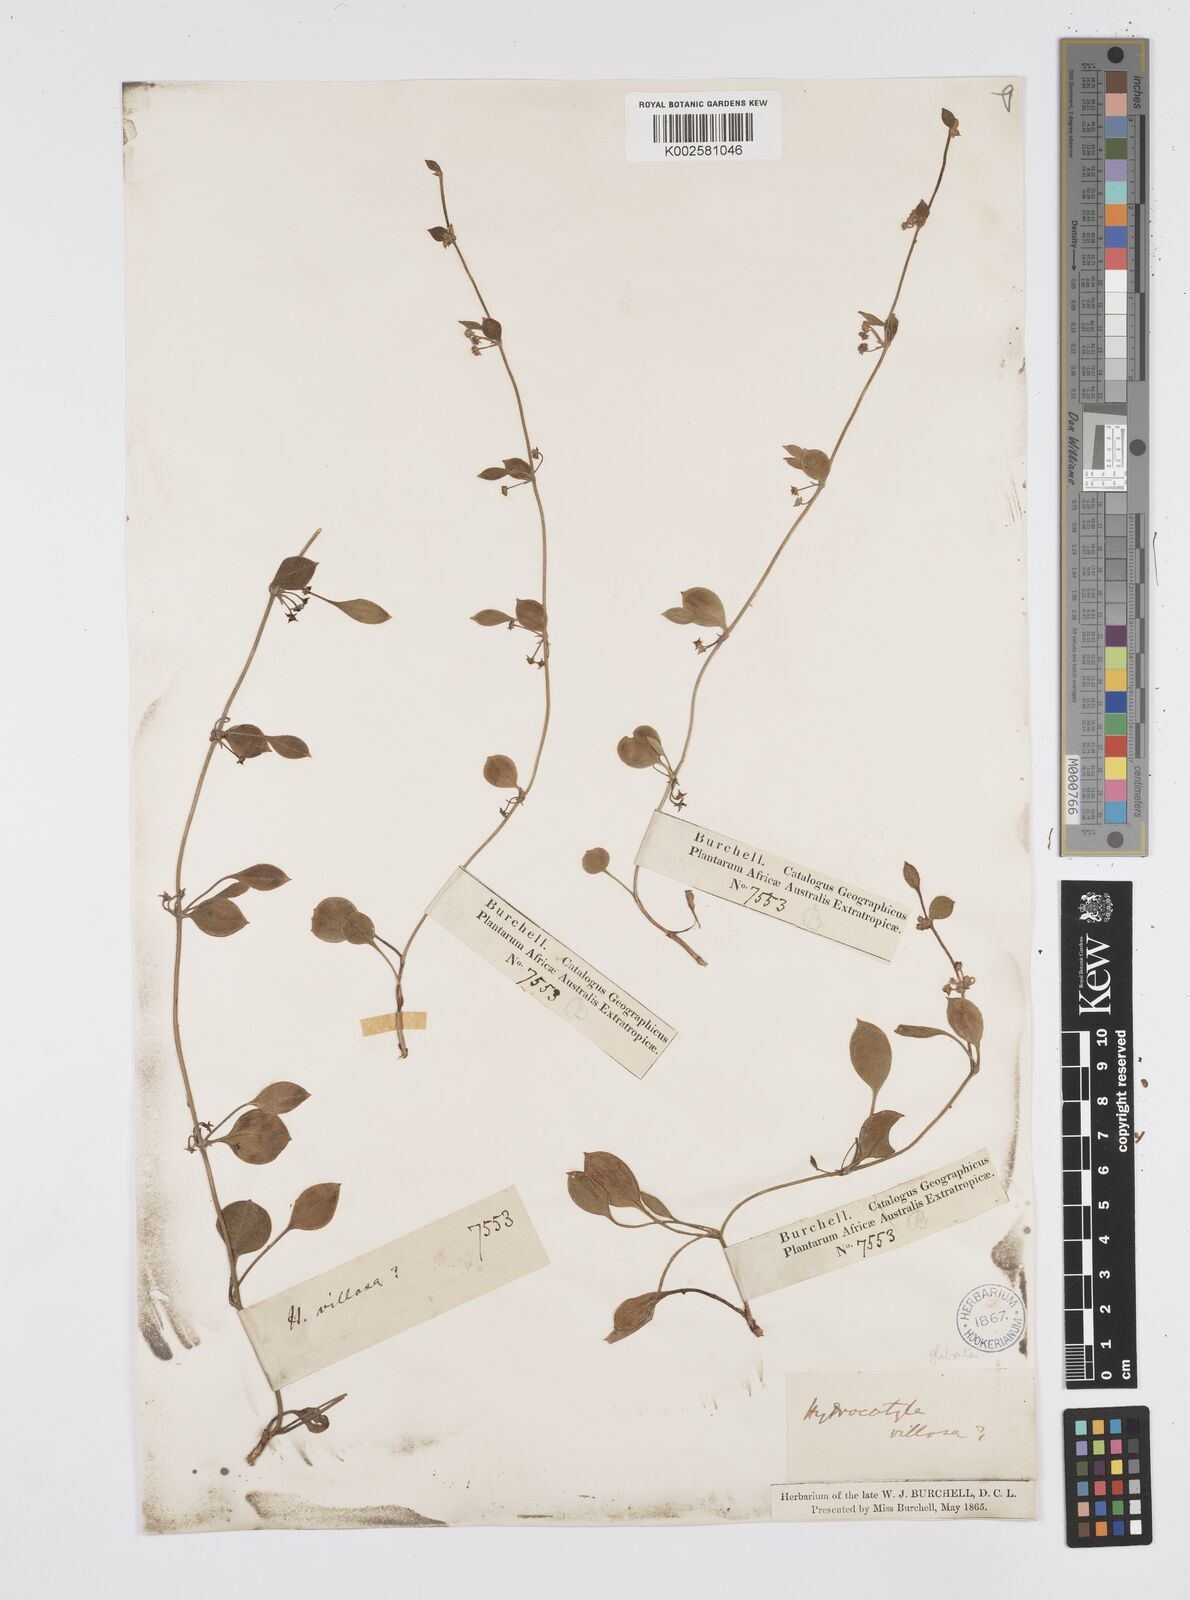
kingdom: Plantae
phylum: Tracheophyta
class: Magnoliopsida
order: Apiales
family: Apiaceae
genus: Centella
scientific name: Centella glabrata
